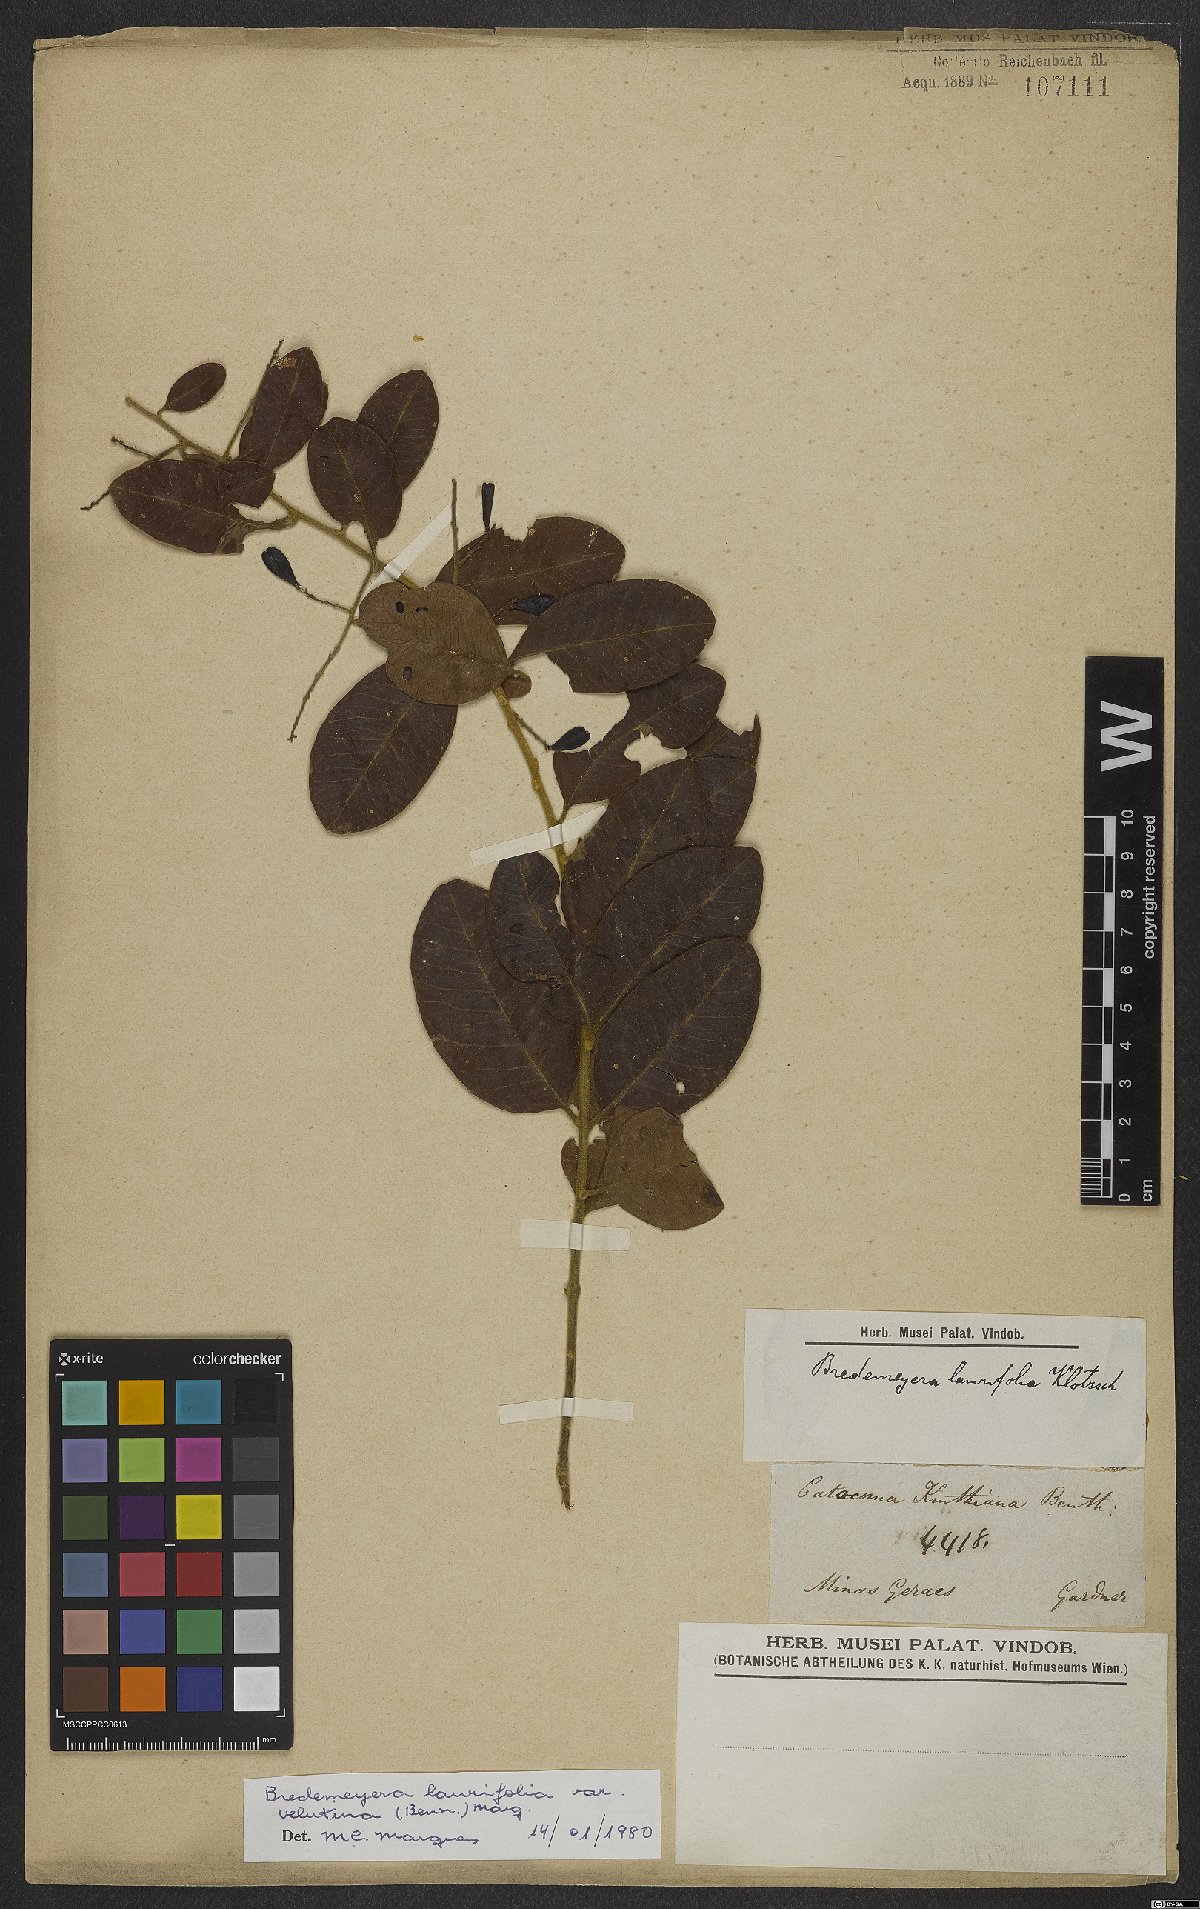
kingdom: Plantae
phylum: Tracheophyta
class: Magnoliopsida
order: Fabales
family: Polygalaceae
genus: Bredemeyera
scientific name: Bredemeyera laurifolia
